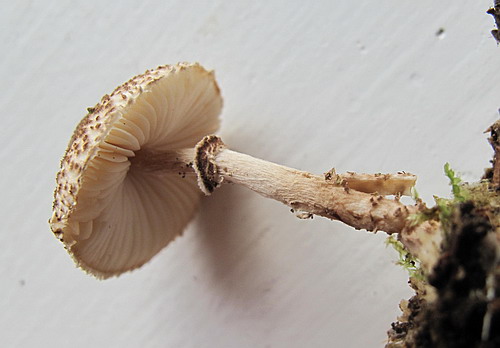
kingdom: Fungi
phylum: Basidiomycota
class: Agaricomycetes
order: Agaricales
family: Agaricaceae
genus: Lepiota
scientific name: Lepiota felina
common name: sortskællet parasolhat
